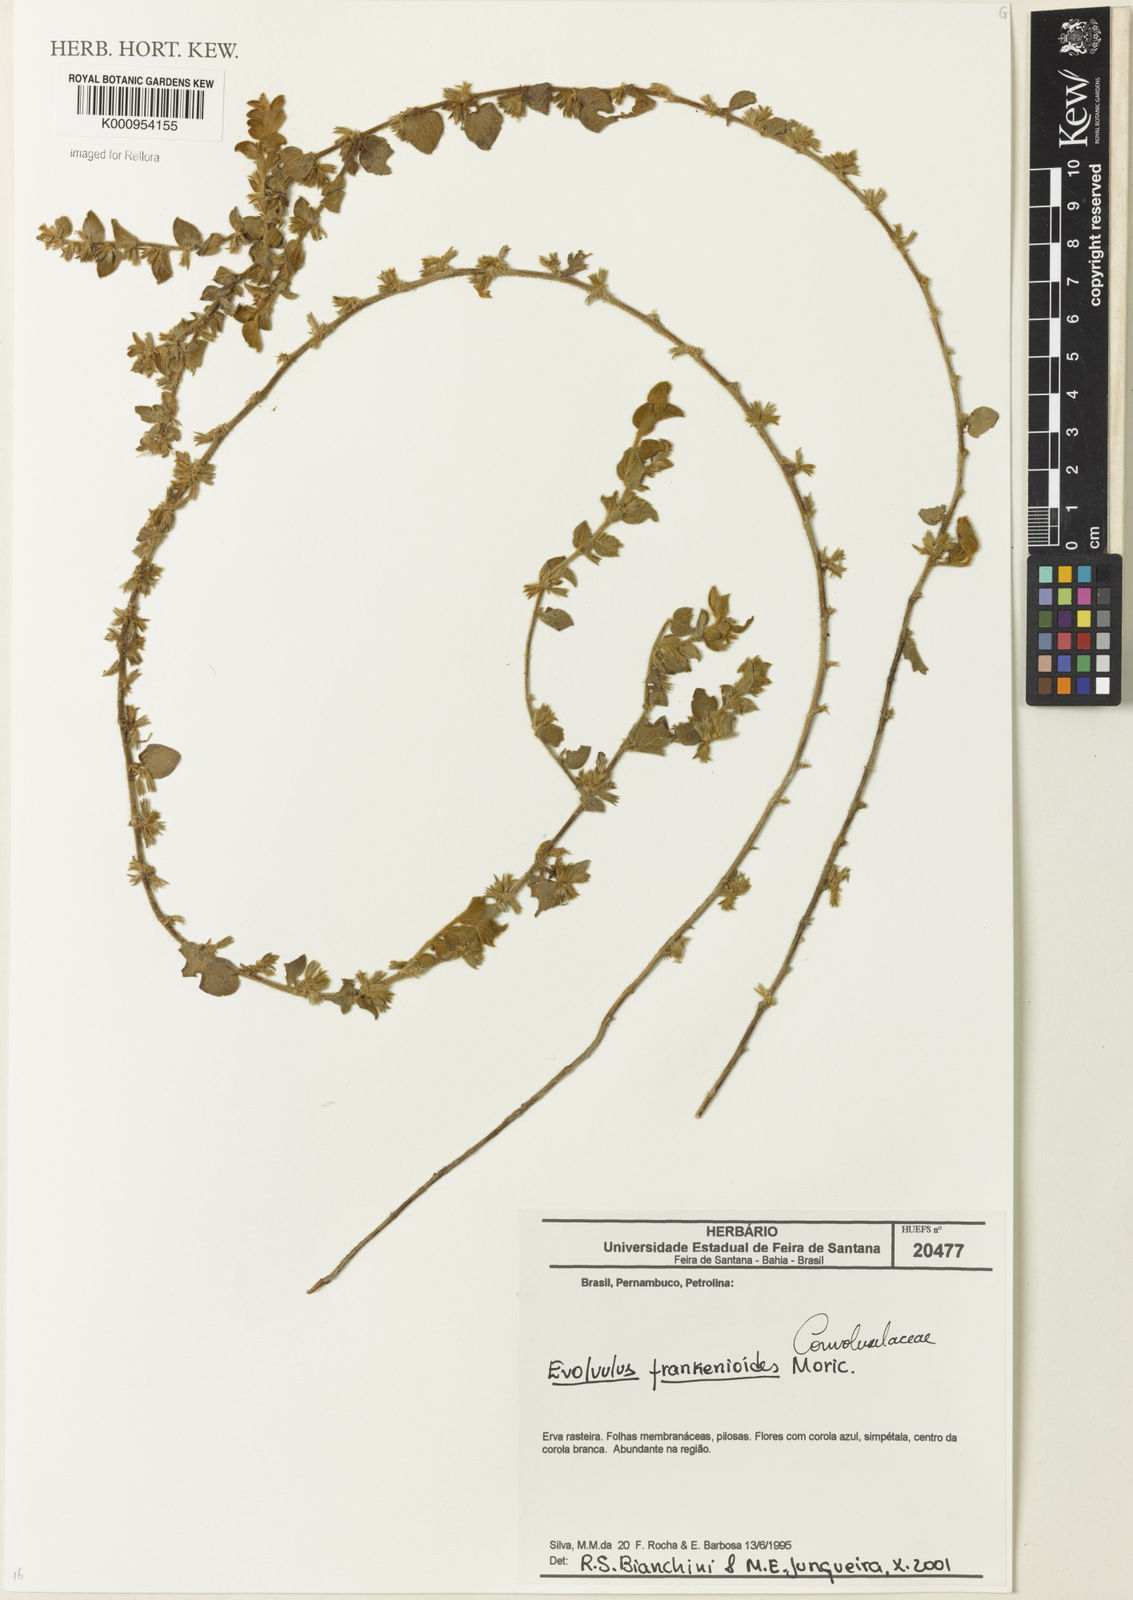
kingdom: Plantae
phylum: Tracheophyta
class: Magnoliopsida
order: Solanales
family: Convolvulaceae
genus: Evolvulus
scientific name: Evolvulus frankenioides
